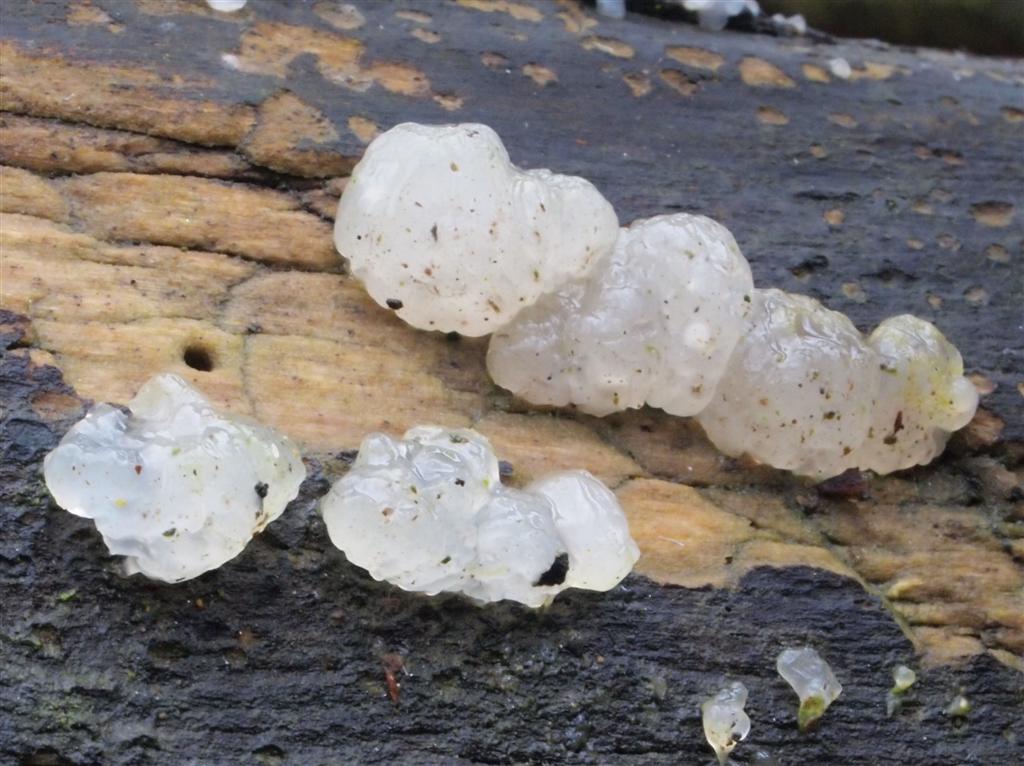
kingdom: Fungi
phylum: Basidiomycota
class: Agaricomycetes
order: Auriculariales
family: Hyaloriaceae
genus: Myxarium
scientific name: Myxarium nucleatum
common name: klar bævretop
